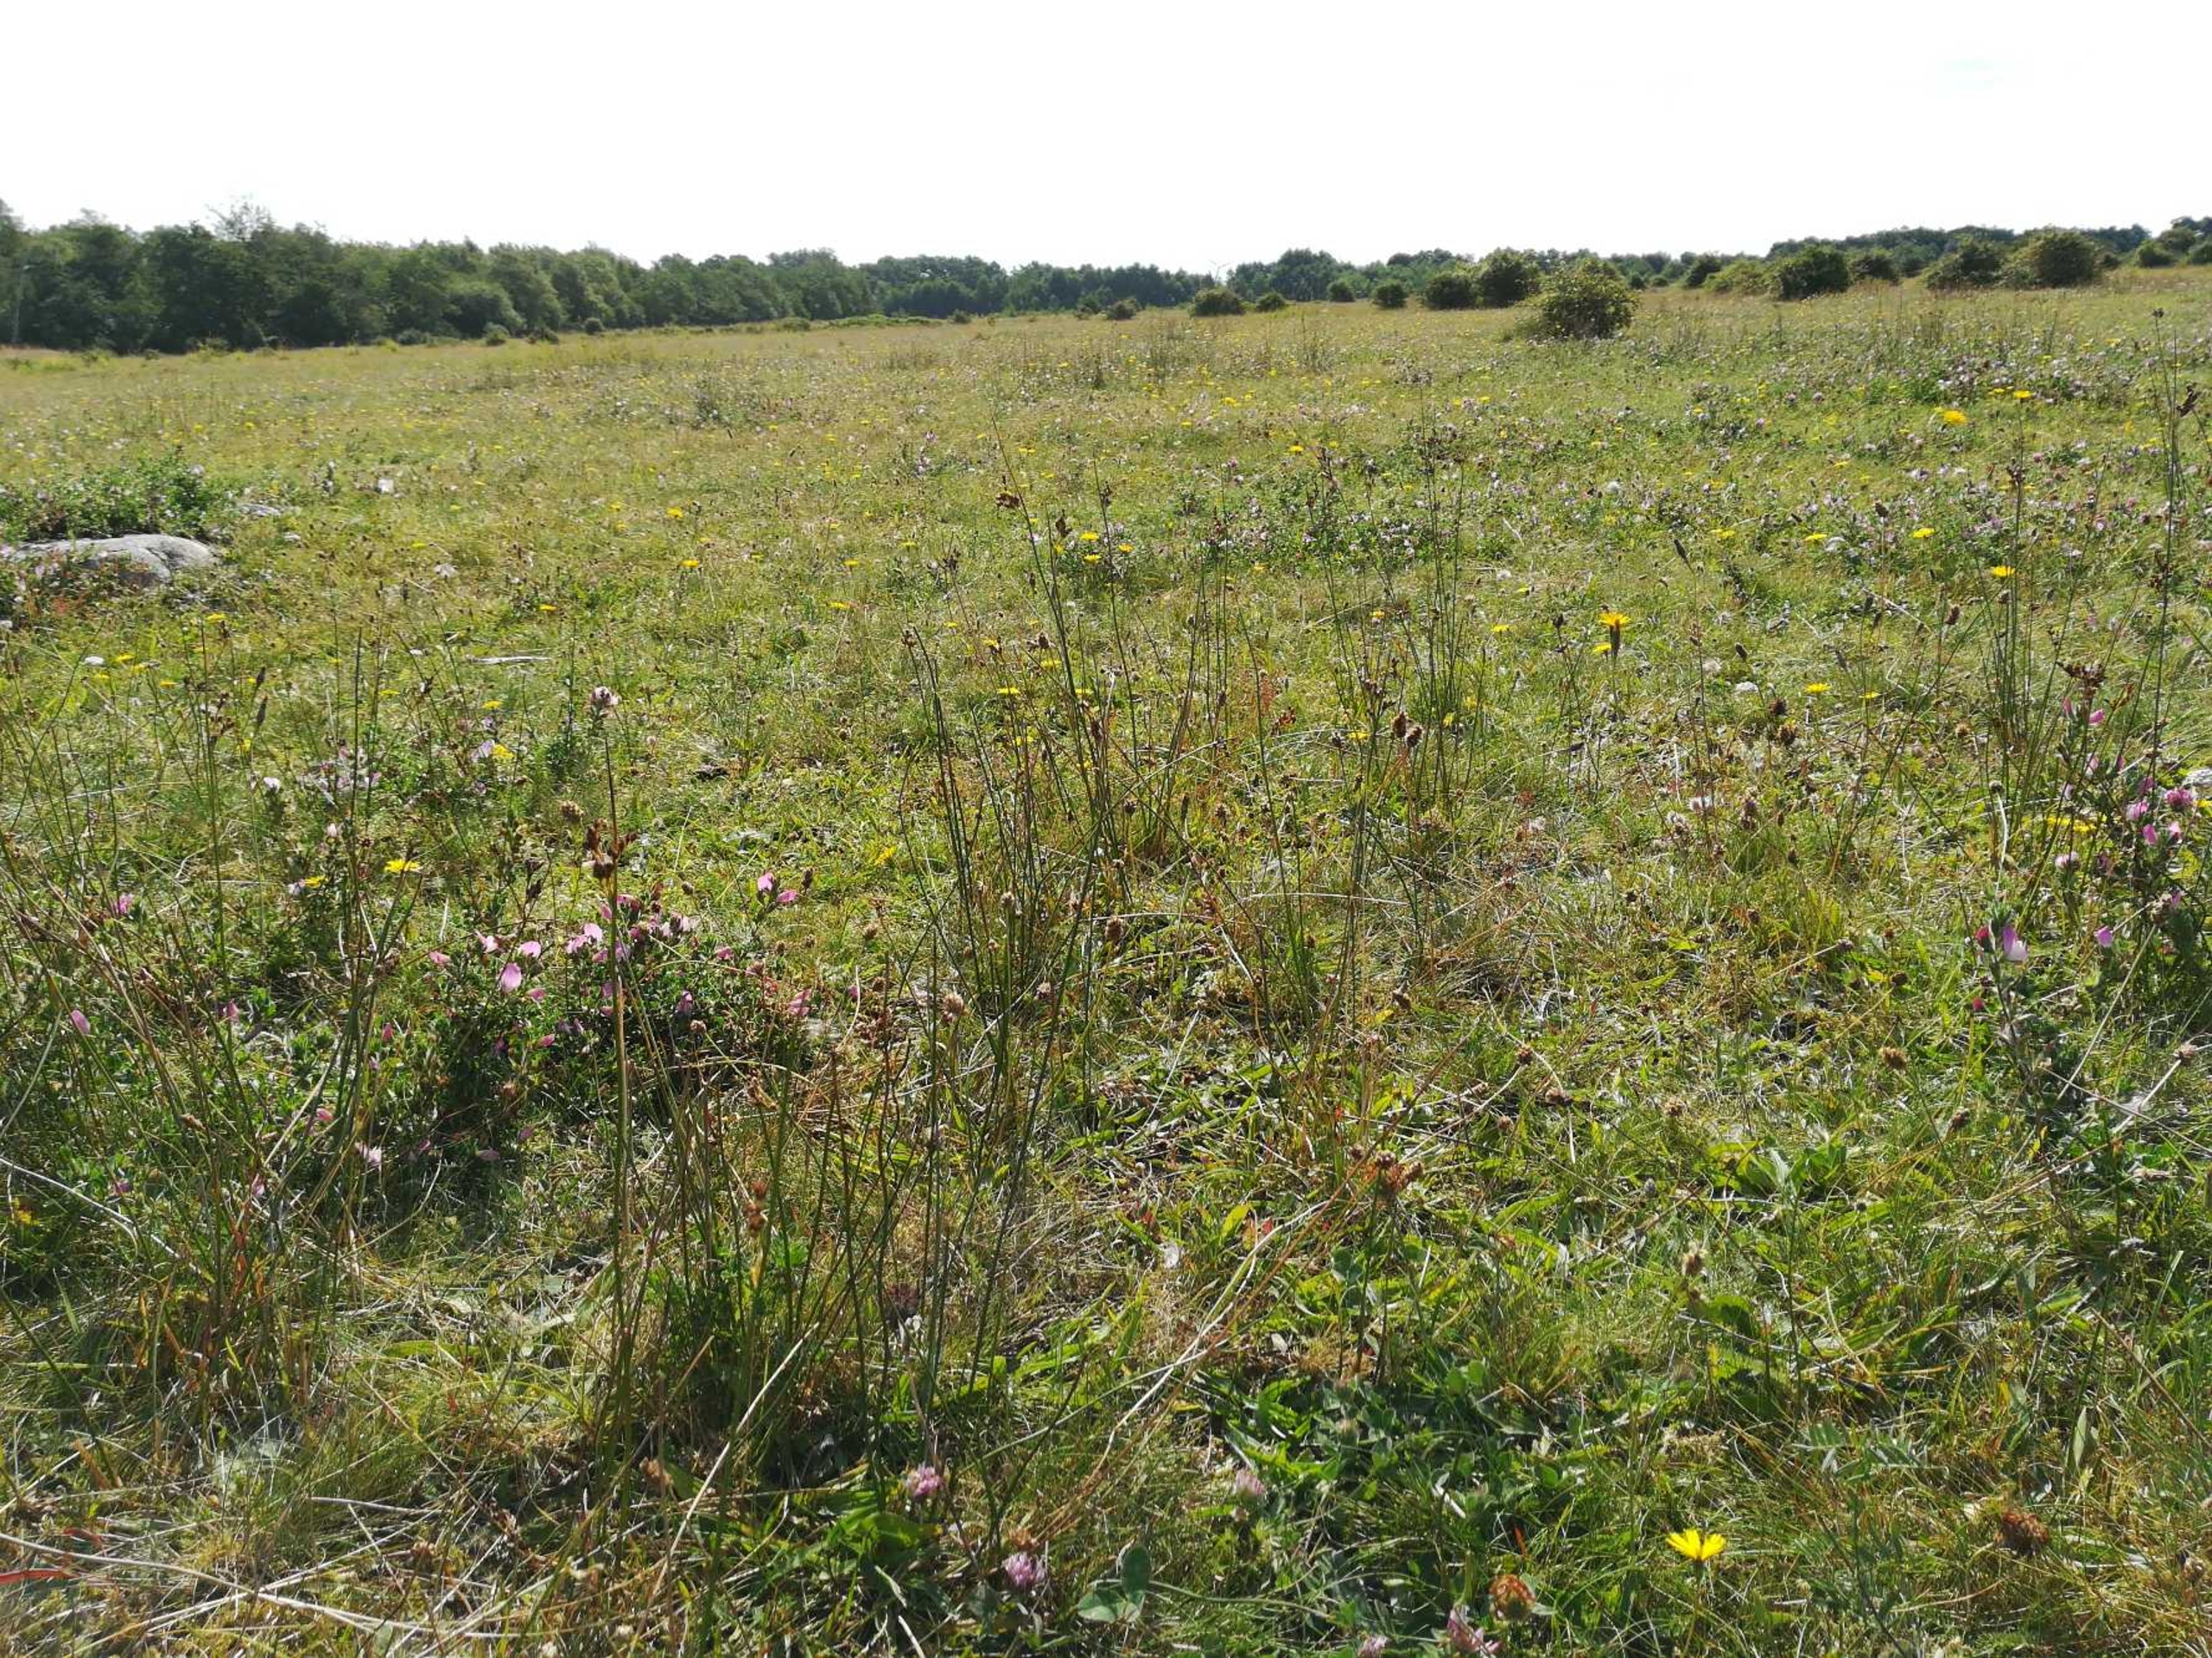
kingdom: Plantae
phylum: Tracheophyta
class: Liliopsida
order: Poales
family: Juncaceae
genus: Juncus
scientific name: Juncus balticus
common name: Klit-siv
